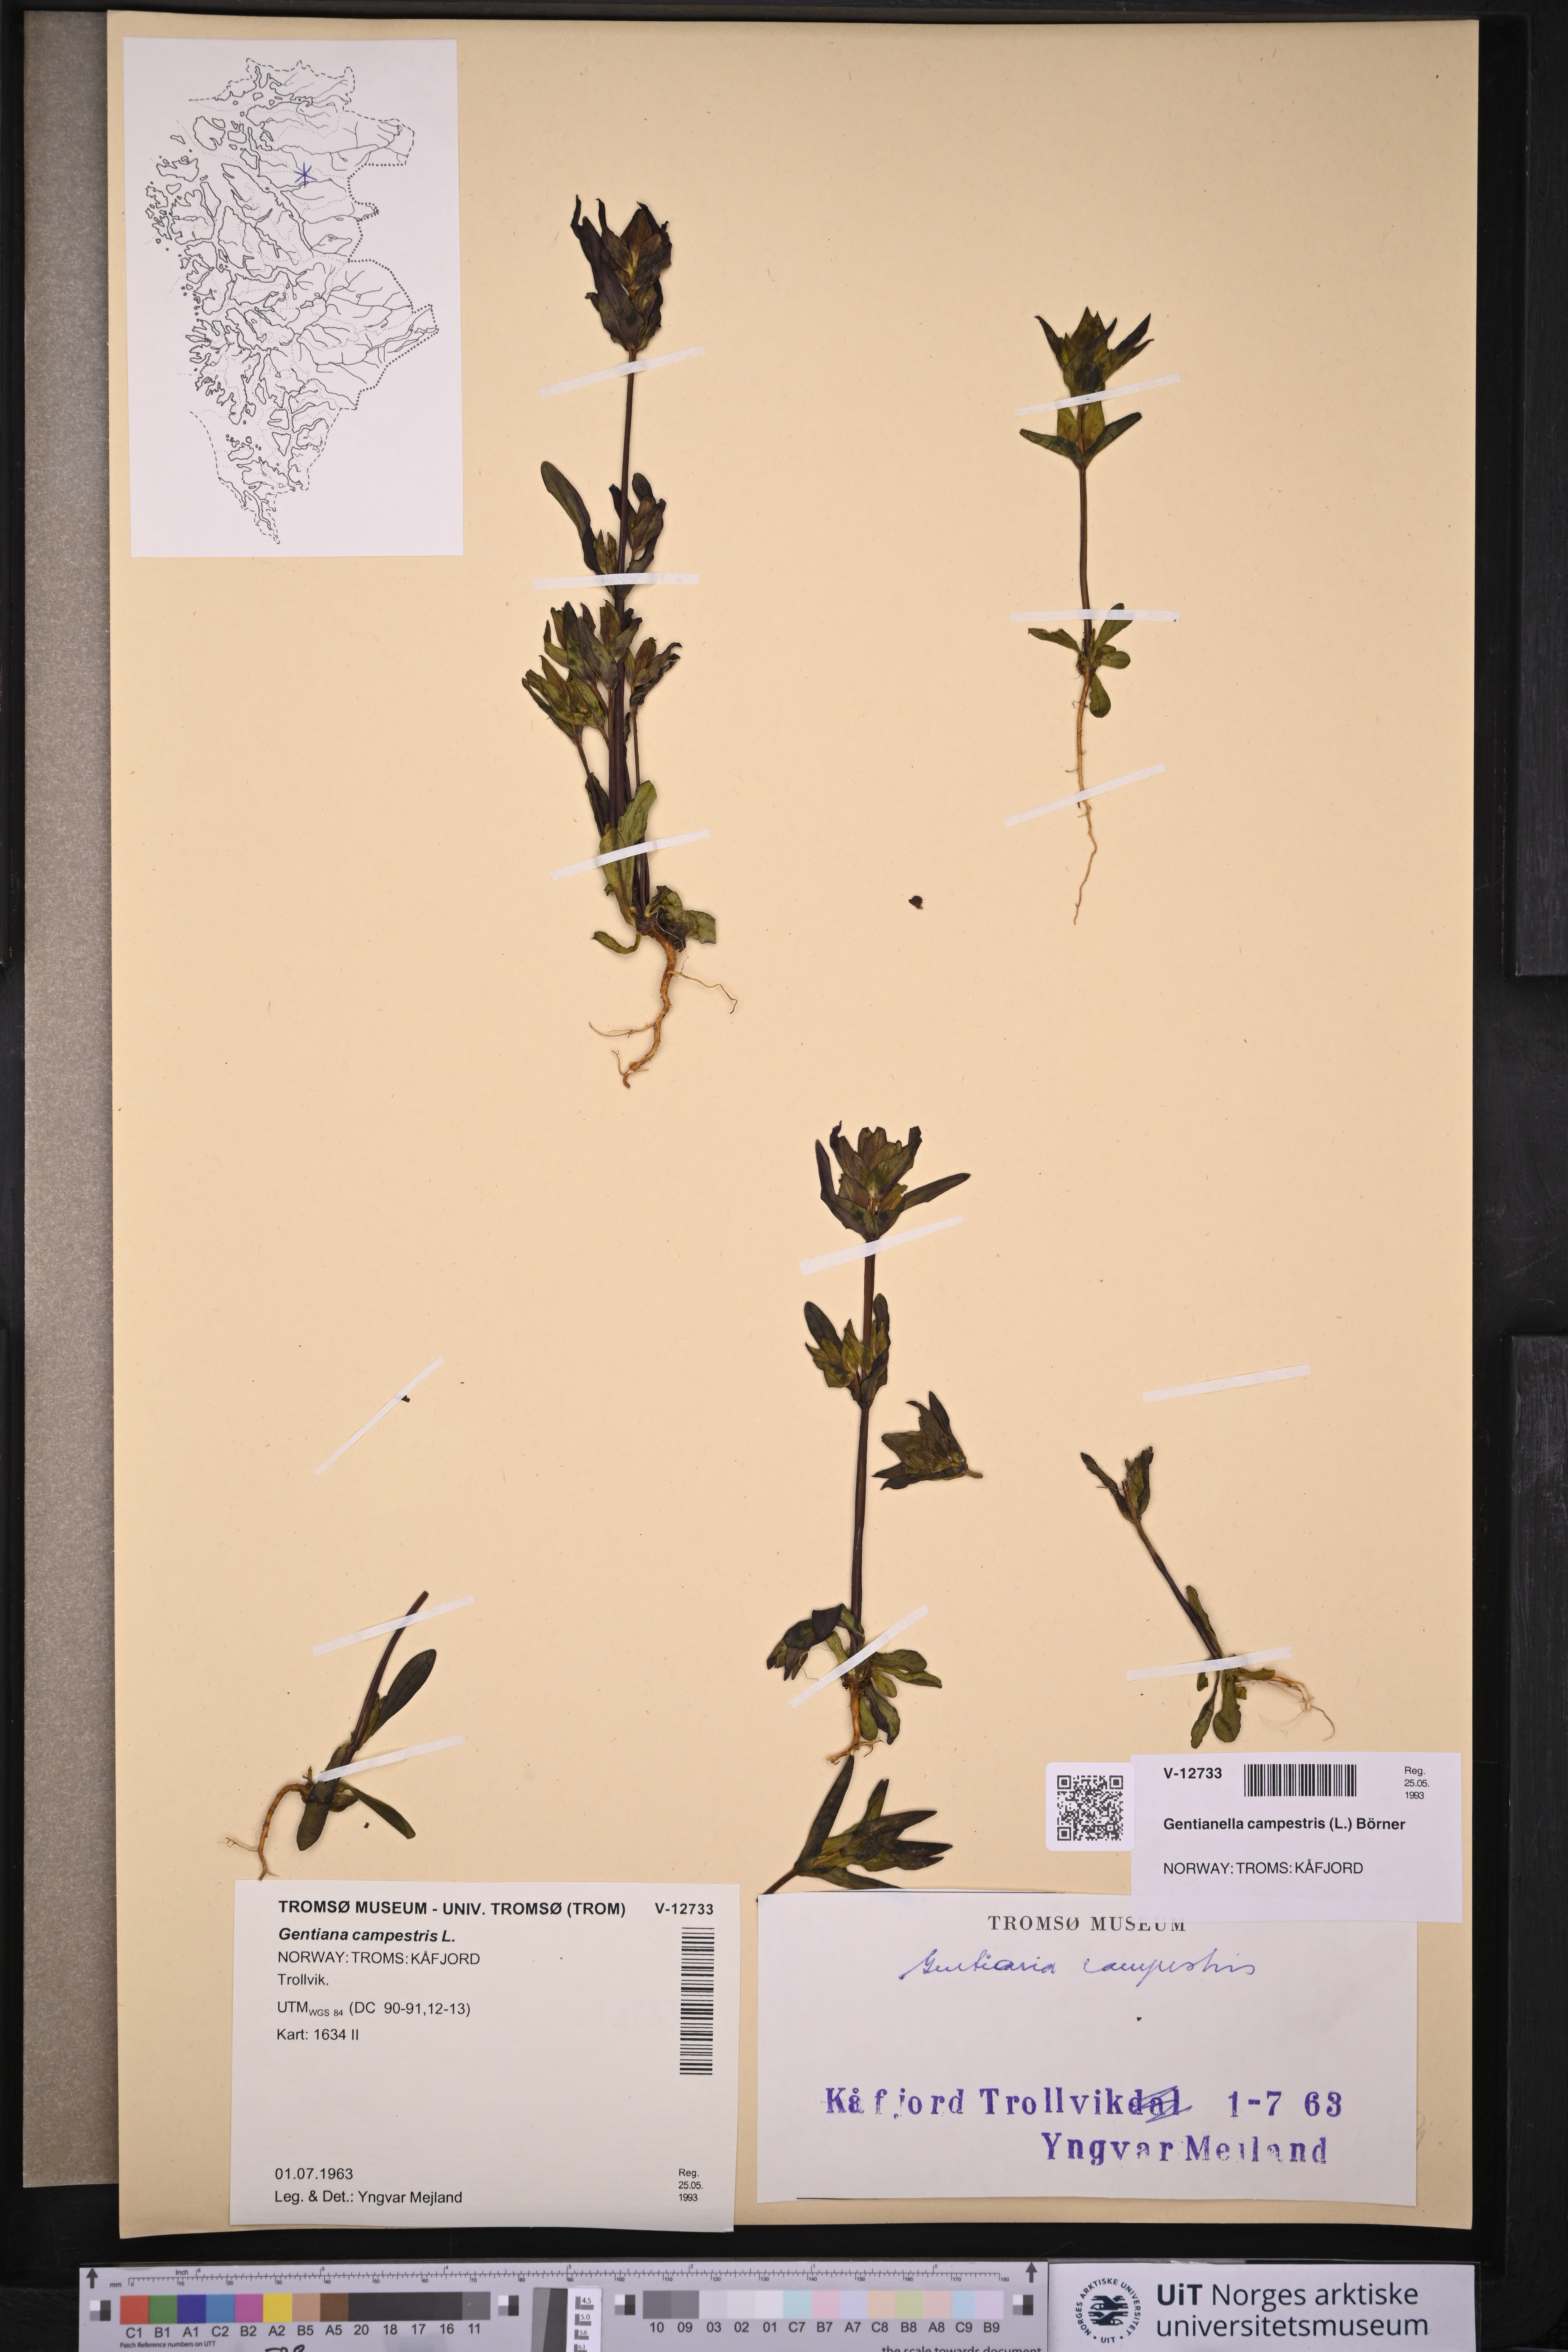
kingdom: Plantae
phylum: Tracheophyta
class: Magnoliopsida
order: Gentianales
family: Gentianaceae
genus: Gentianella
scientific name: Gentianella campestris
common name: Field gentian
